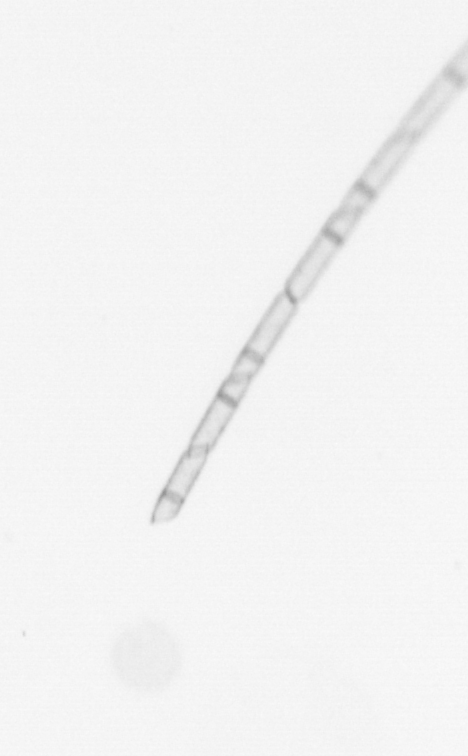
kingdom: Chromista
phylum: Ochrophyta
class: Bacillariophyceae
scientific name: Bacillariophyceae
